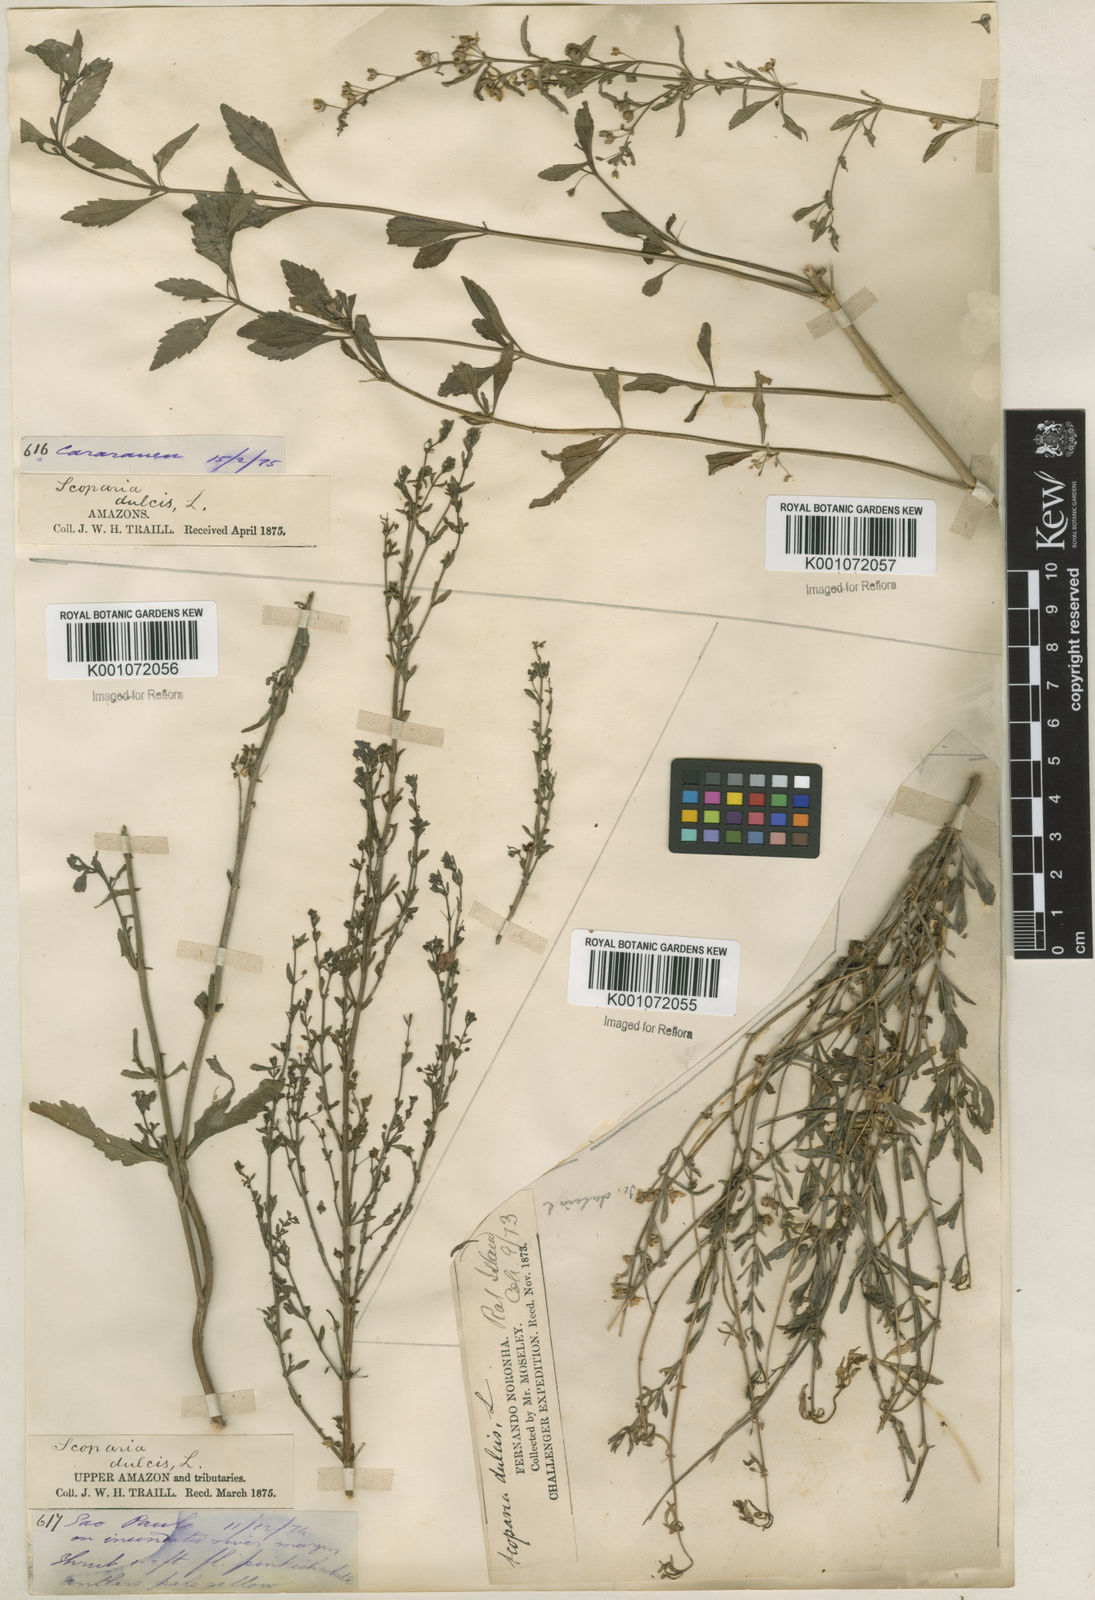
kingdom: Plantae
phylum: Tracheophyta
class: Magnoliopsida
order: Lamiales
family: Plantaginaceae
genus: Scoparia
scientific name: Scoparia dulcis
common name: Scoparia-weed
